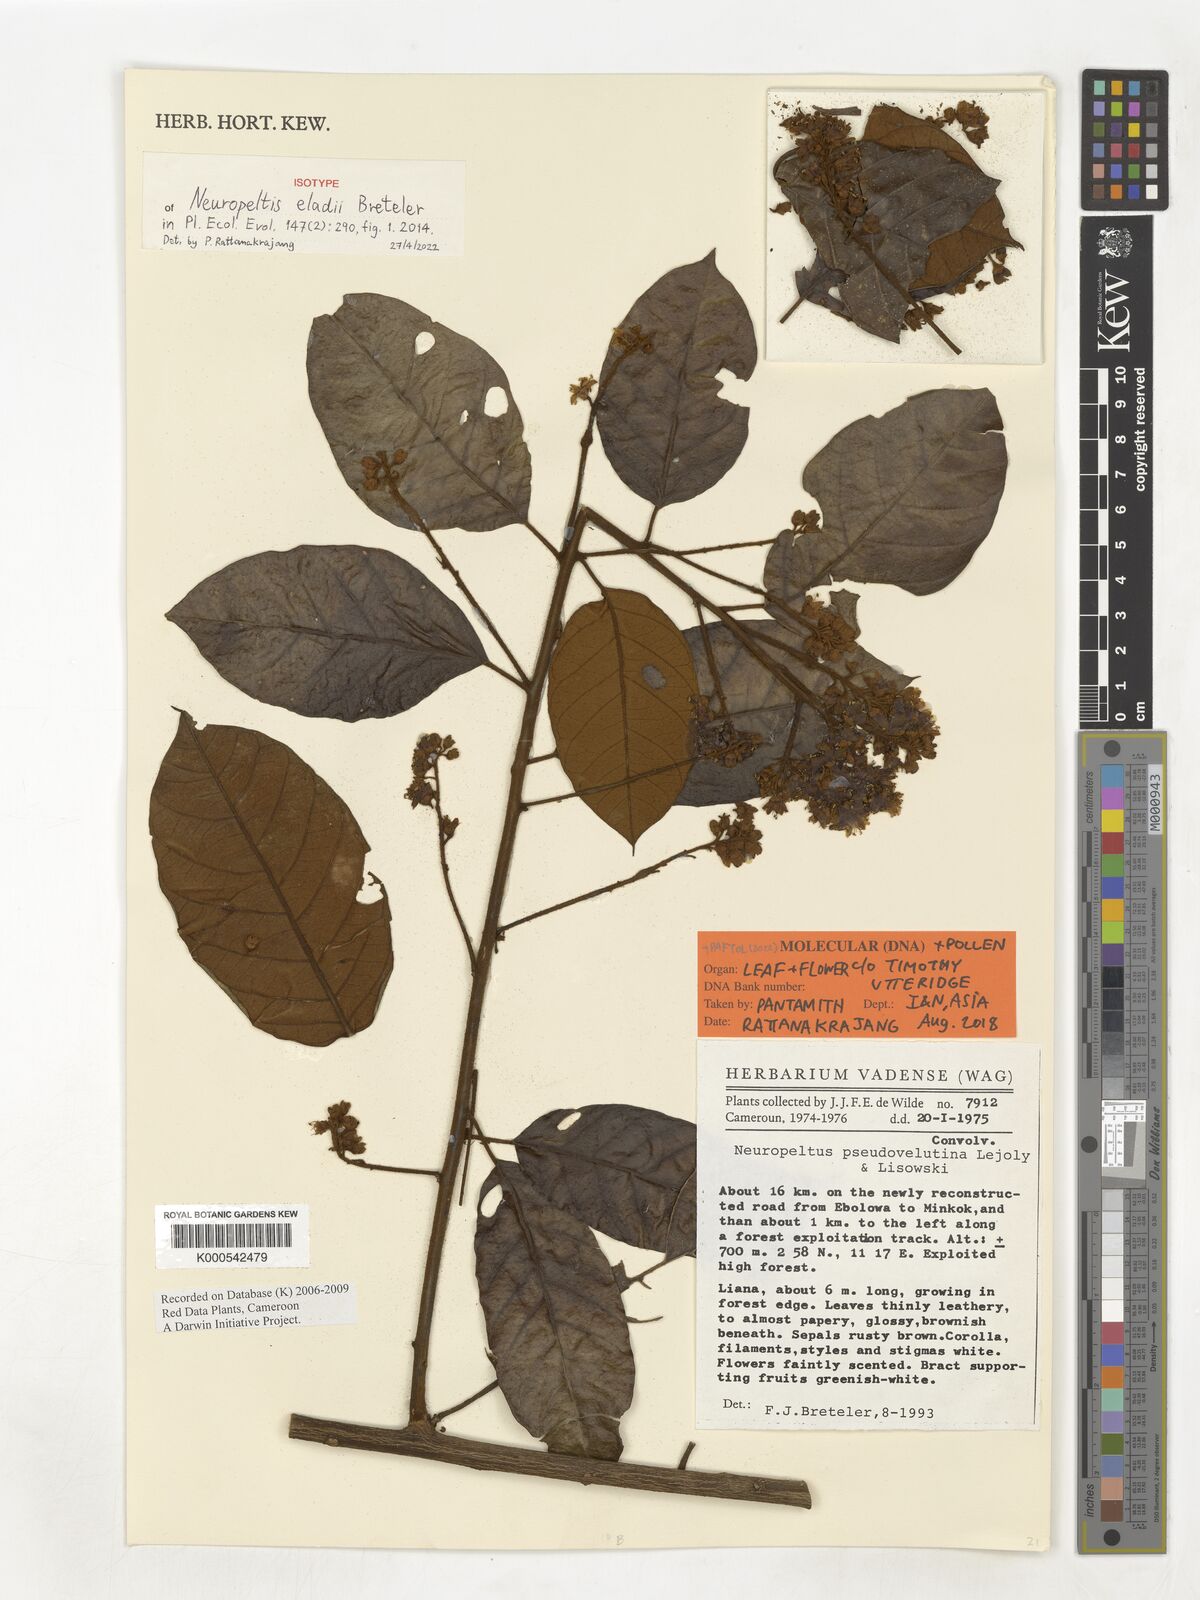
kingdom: Plantae
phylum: Tracheophyta
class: Magnoliopsida
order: Solanales
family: Convolvulaceae
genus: Neuropeltis
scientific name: Neuropeltis eladii
